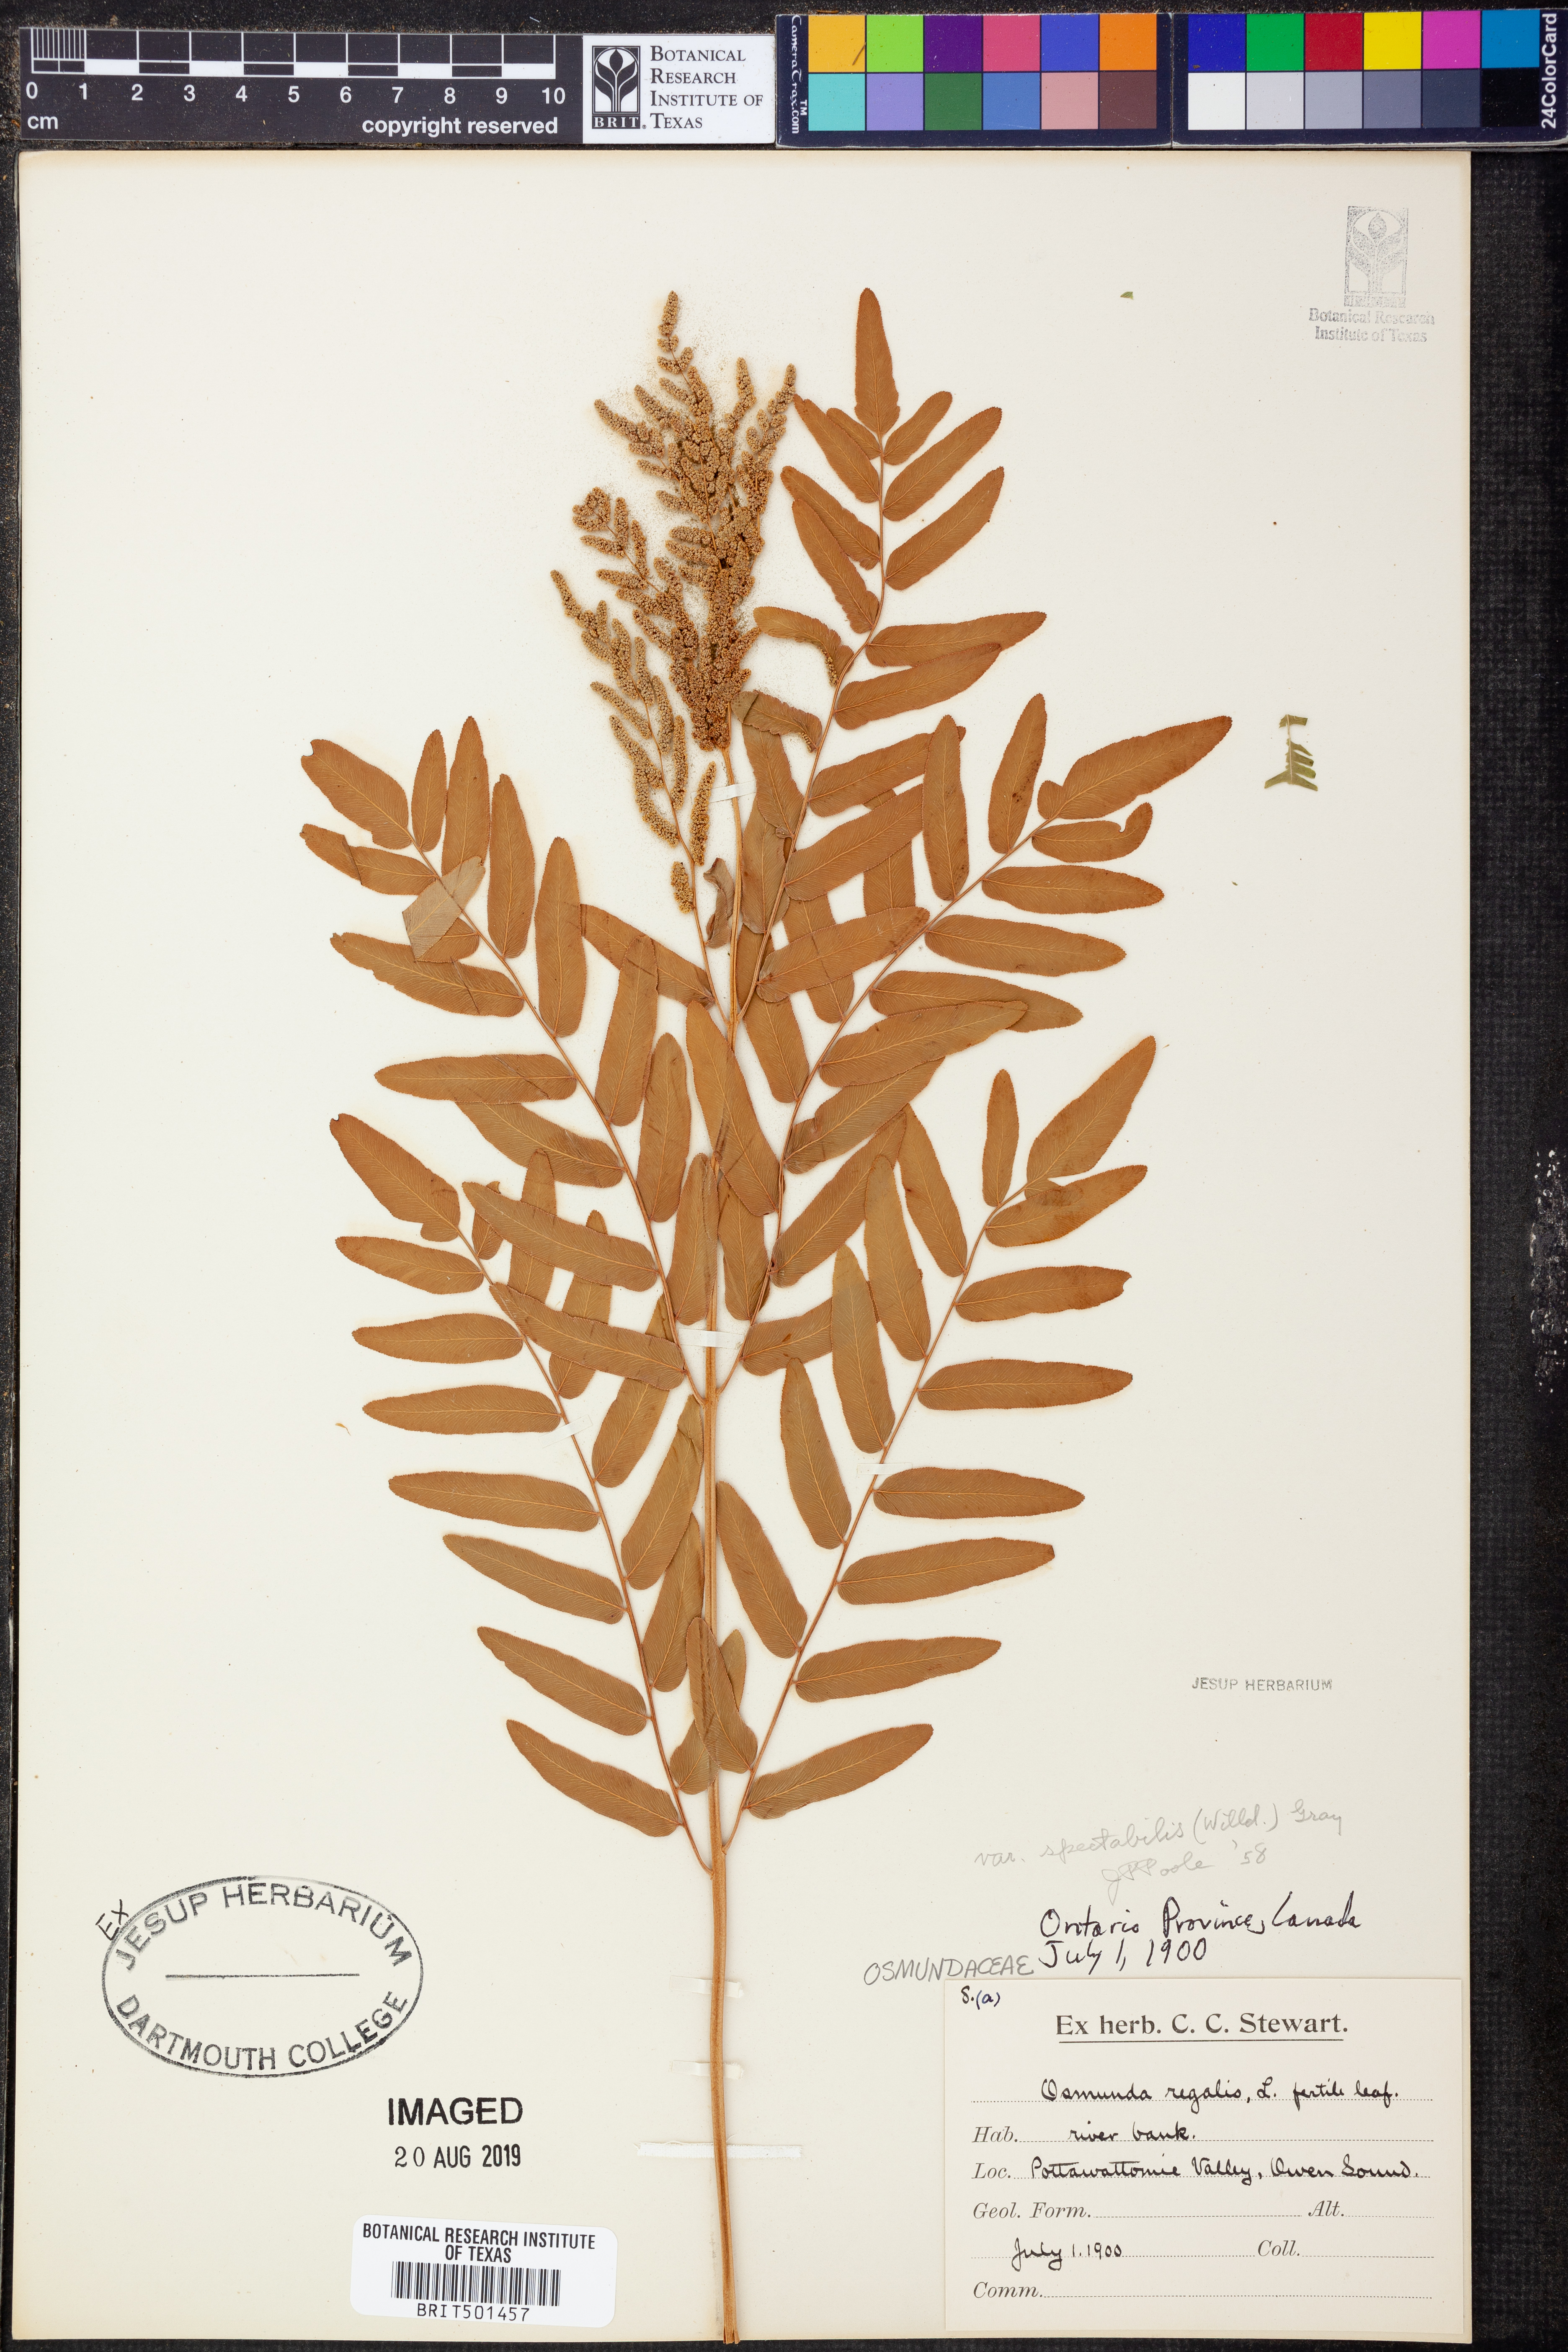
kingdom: Plantae
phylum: Tracheophyta
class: Polypodiopsida
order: Osmundales
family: Osmundaceae
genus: Osmunda
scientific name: Osmunda spectabilis
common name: American royal fern
